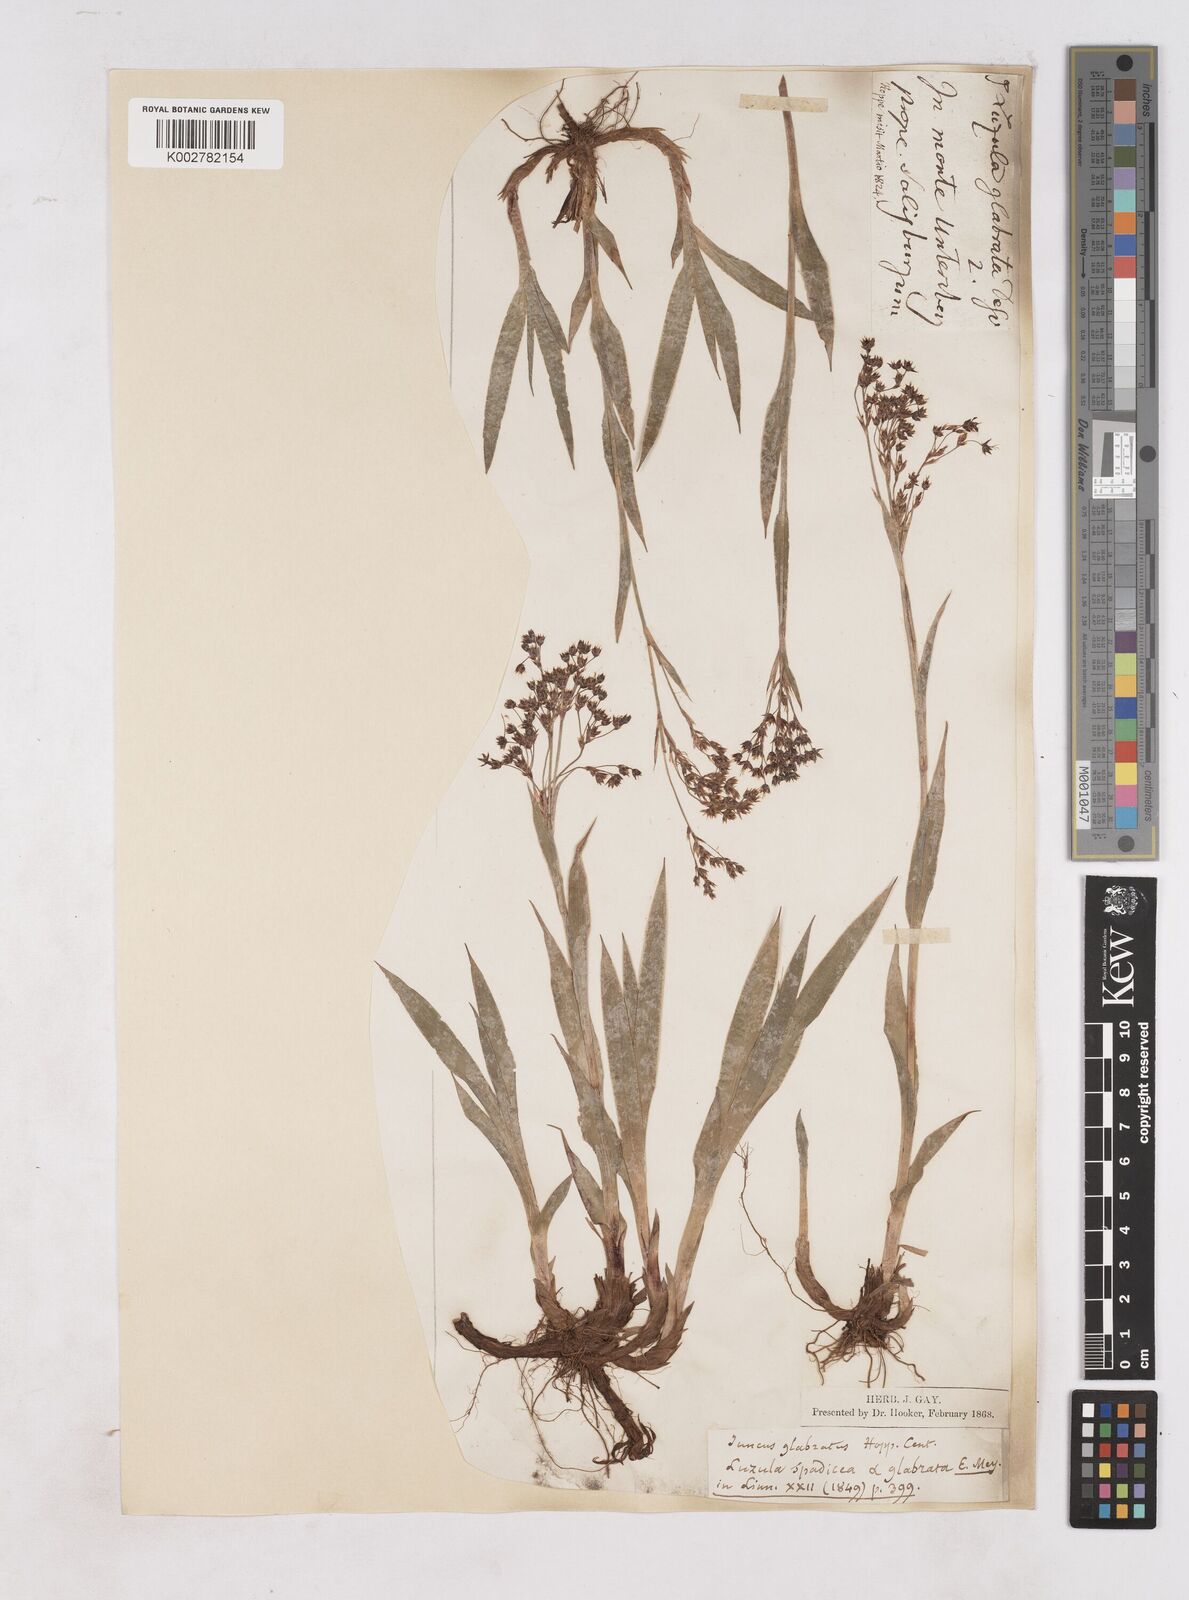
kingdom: Plantae
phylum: Tracheophyta
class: Liliopsida
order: Poales
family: Juncaceae
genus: Luzula
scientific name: Luzula glabrata
